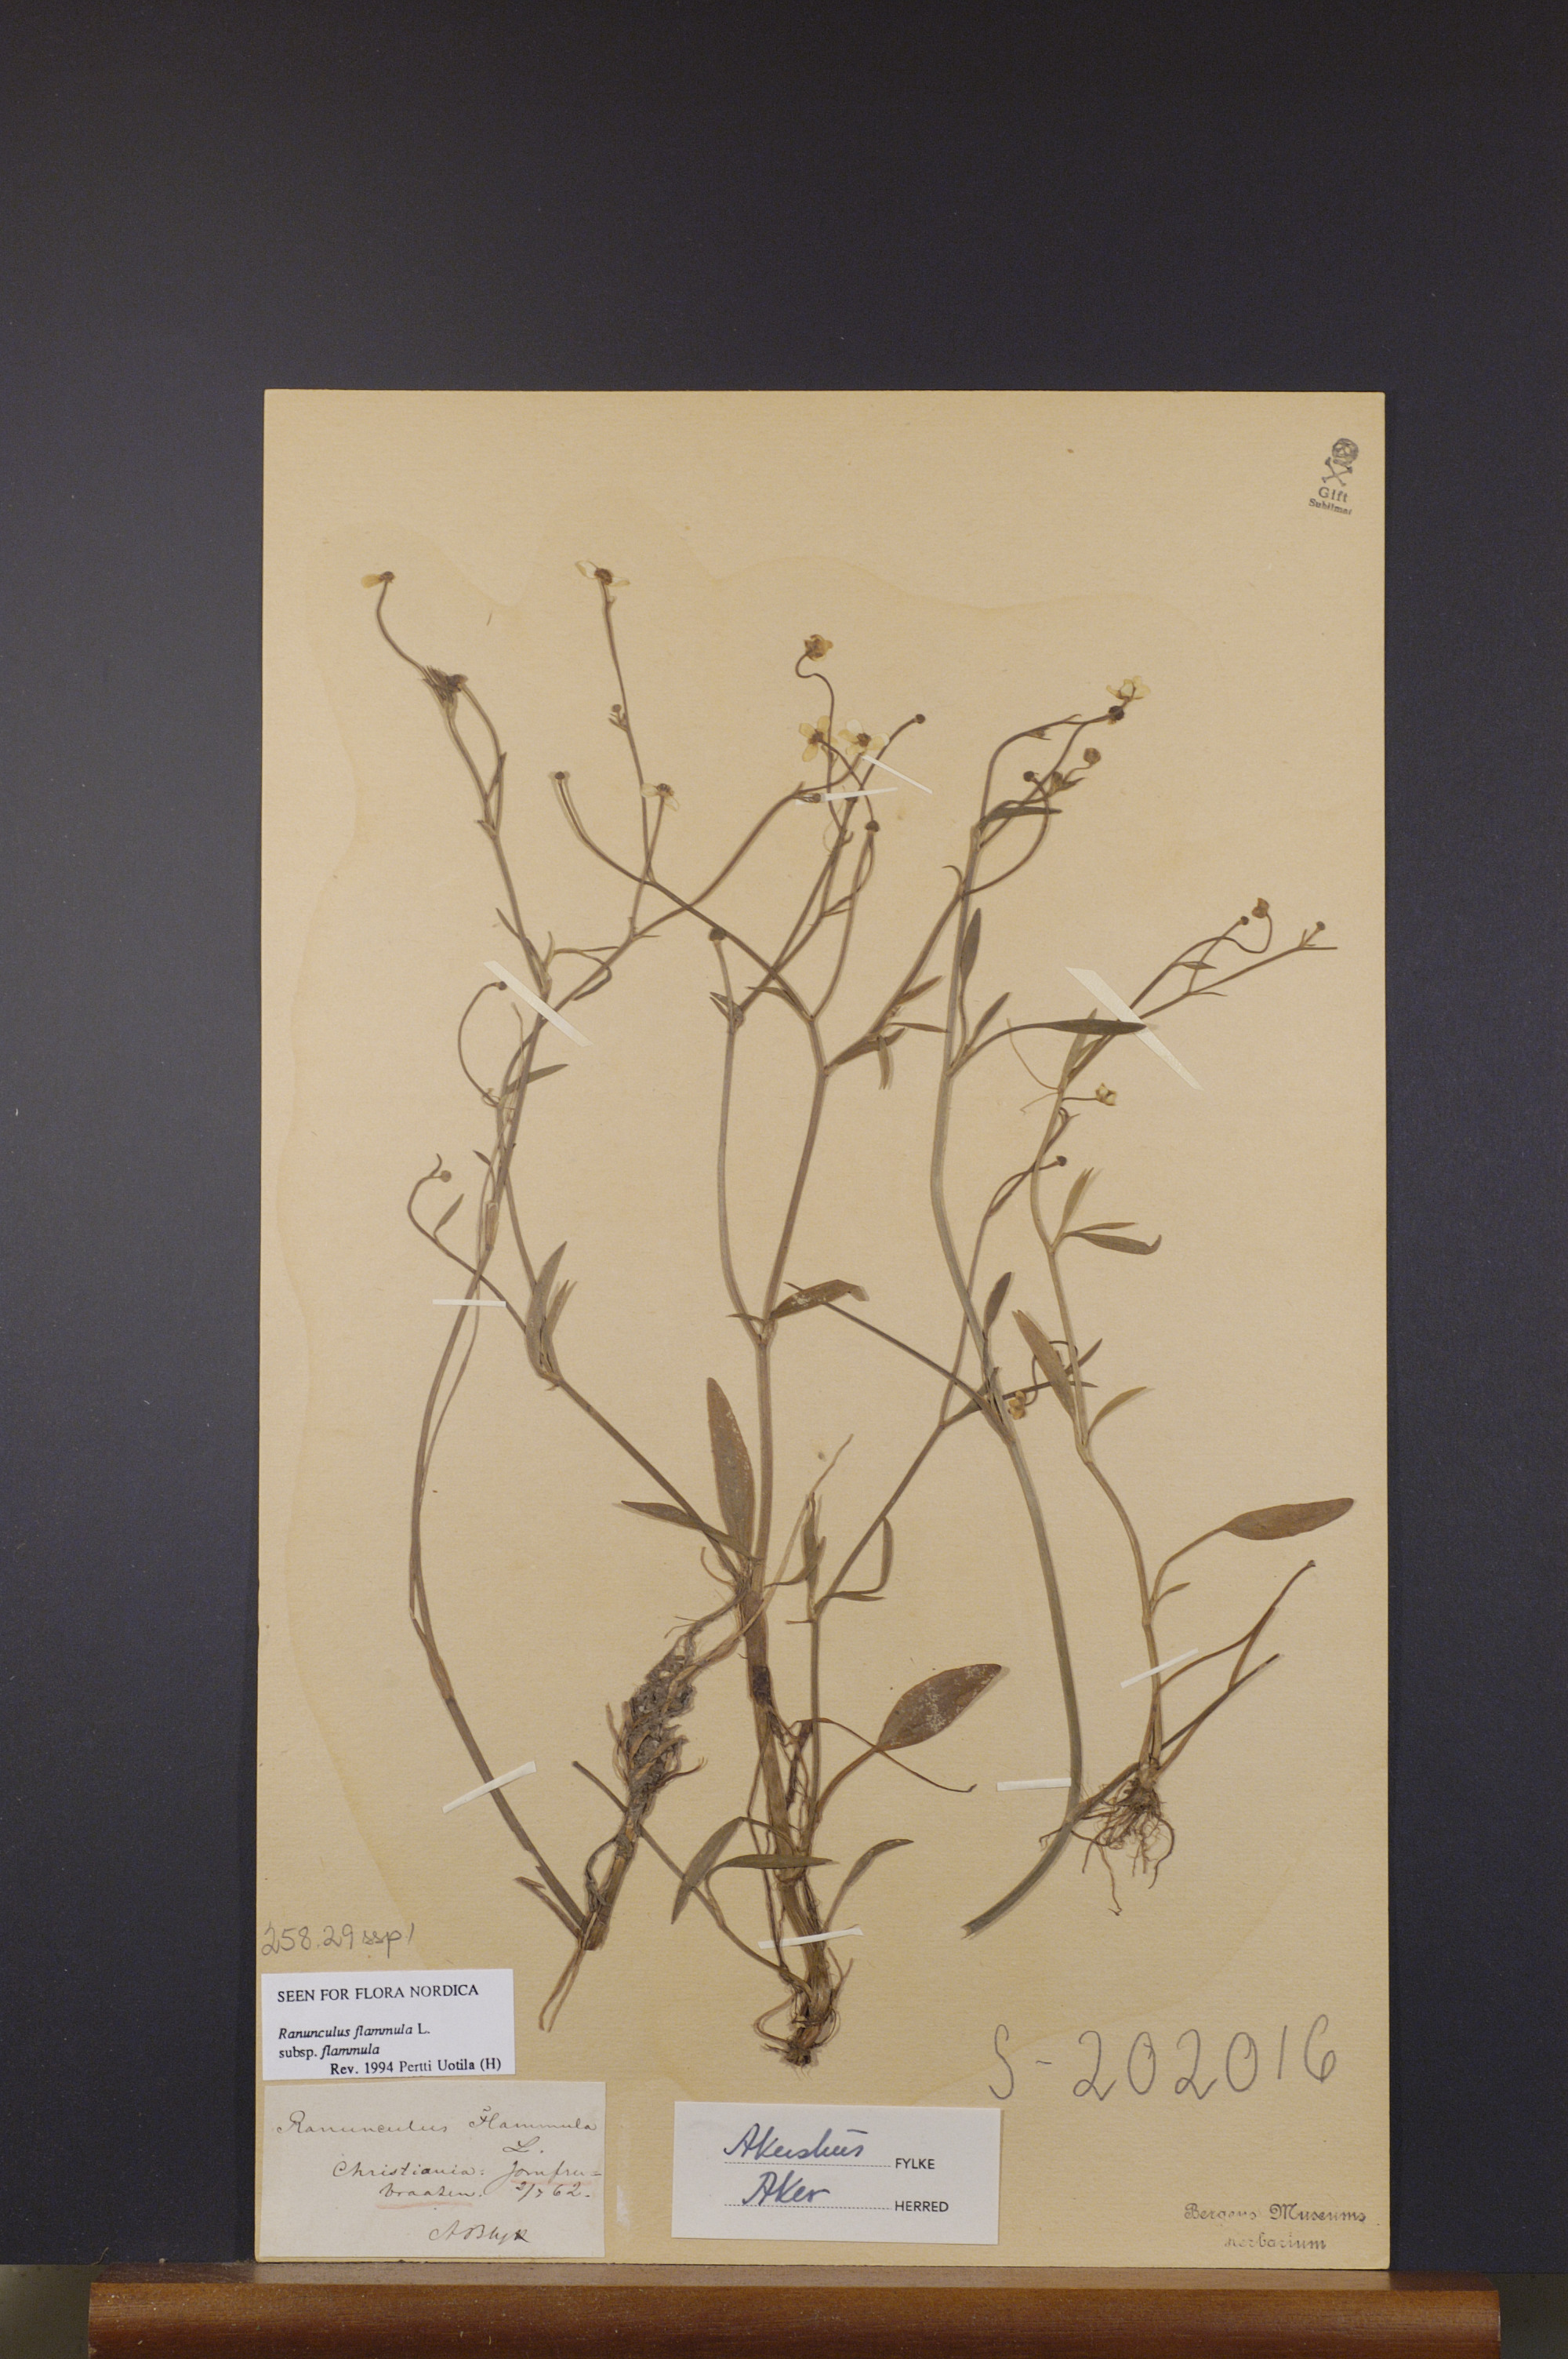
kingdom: Plantae
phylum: Tracheophyta
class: Magnoliopsida
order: Ranunculales
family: Ranunculaceae
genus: Ranunculus
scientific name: Ranunculus flammula
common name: Lesser spearwort
